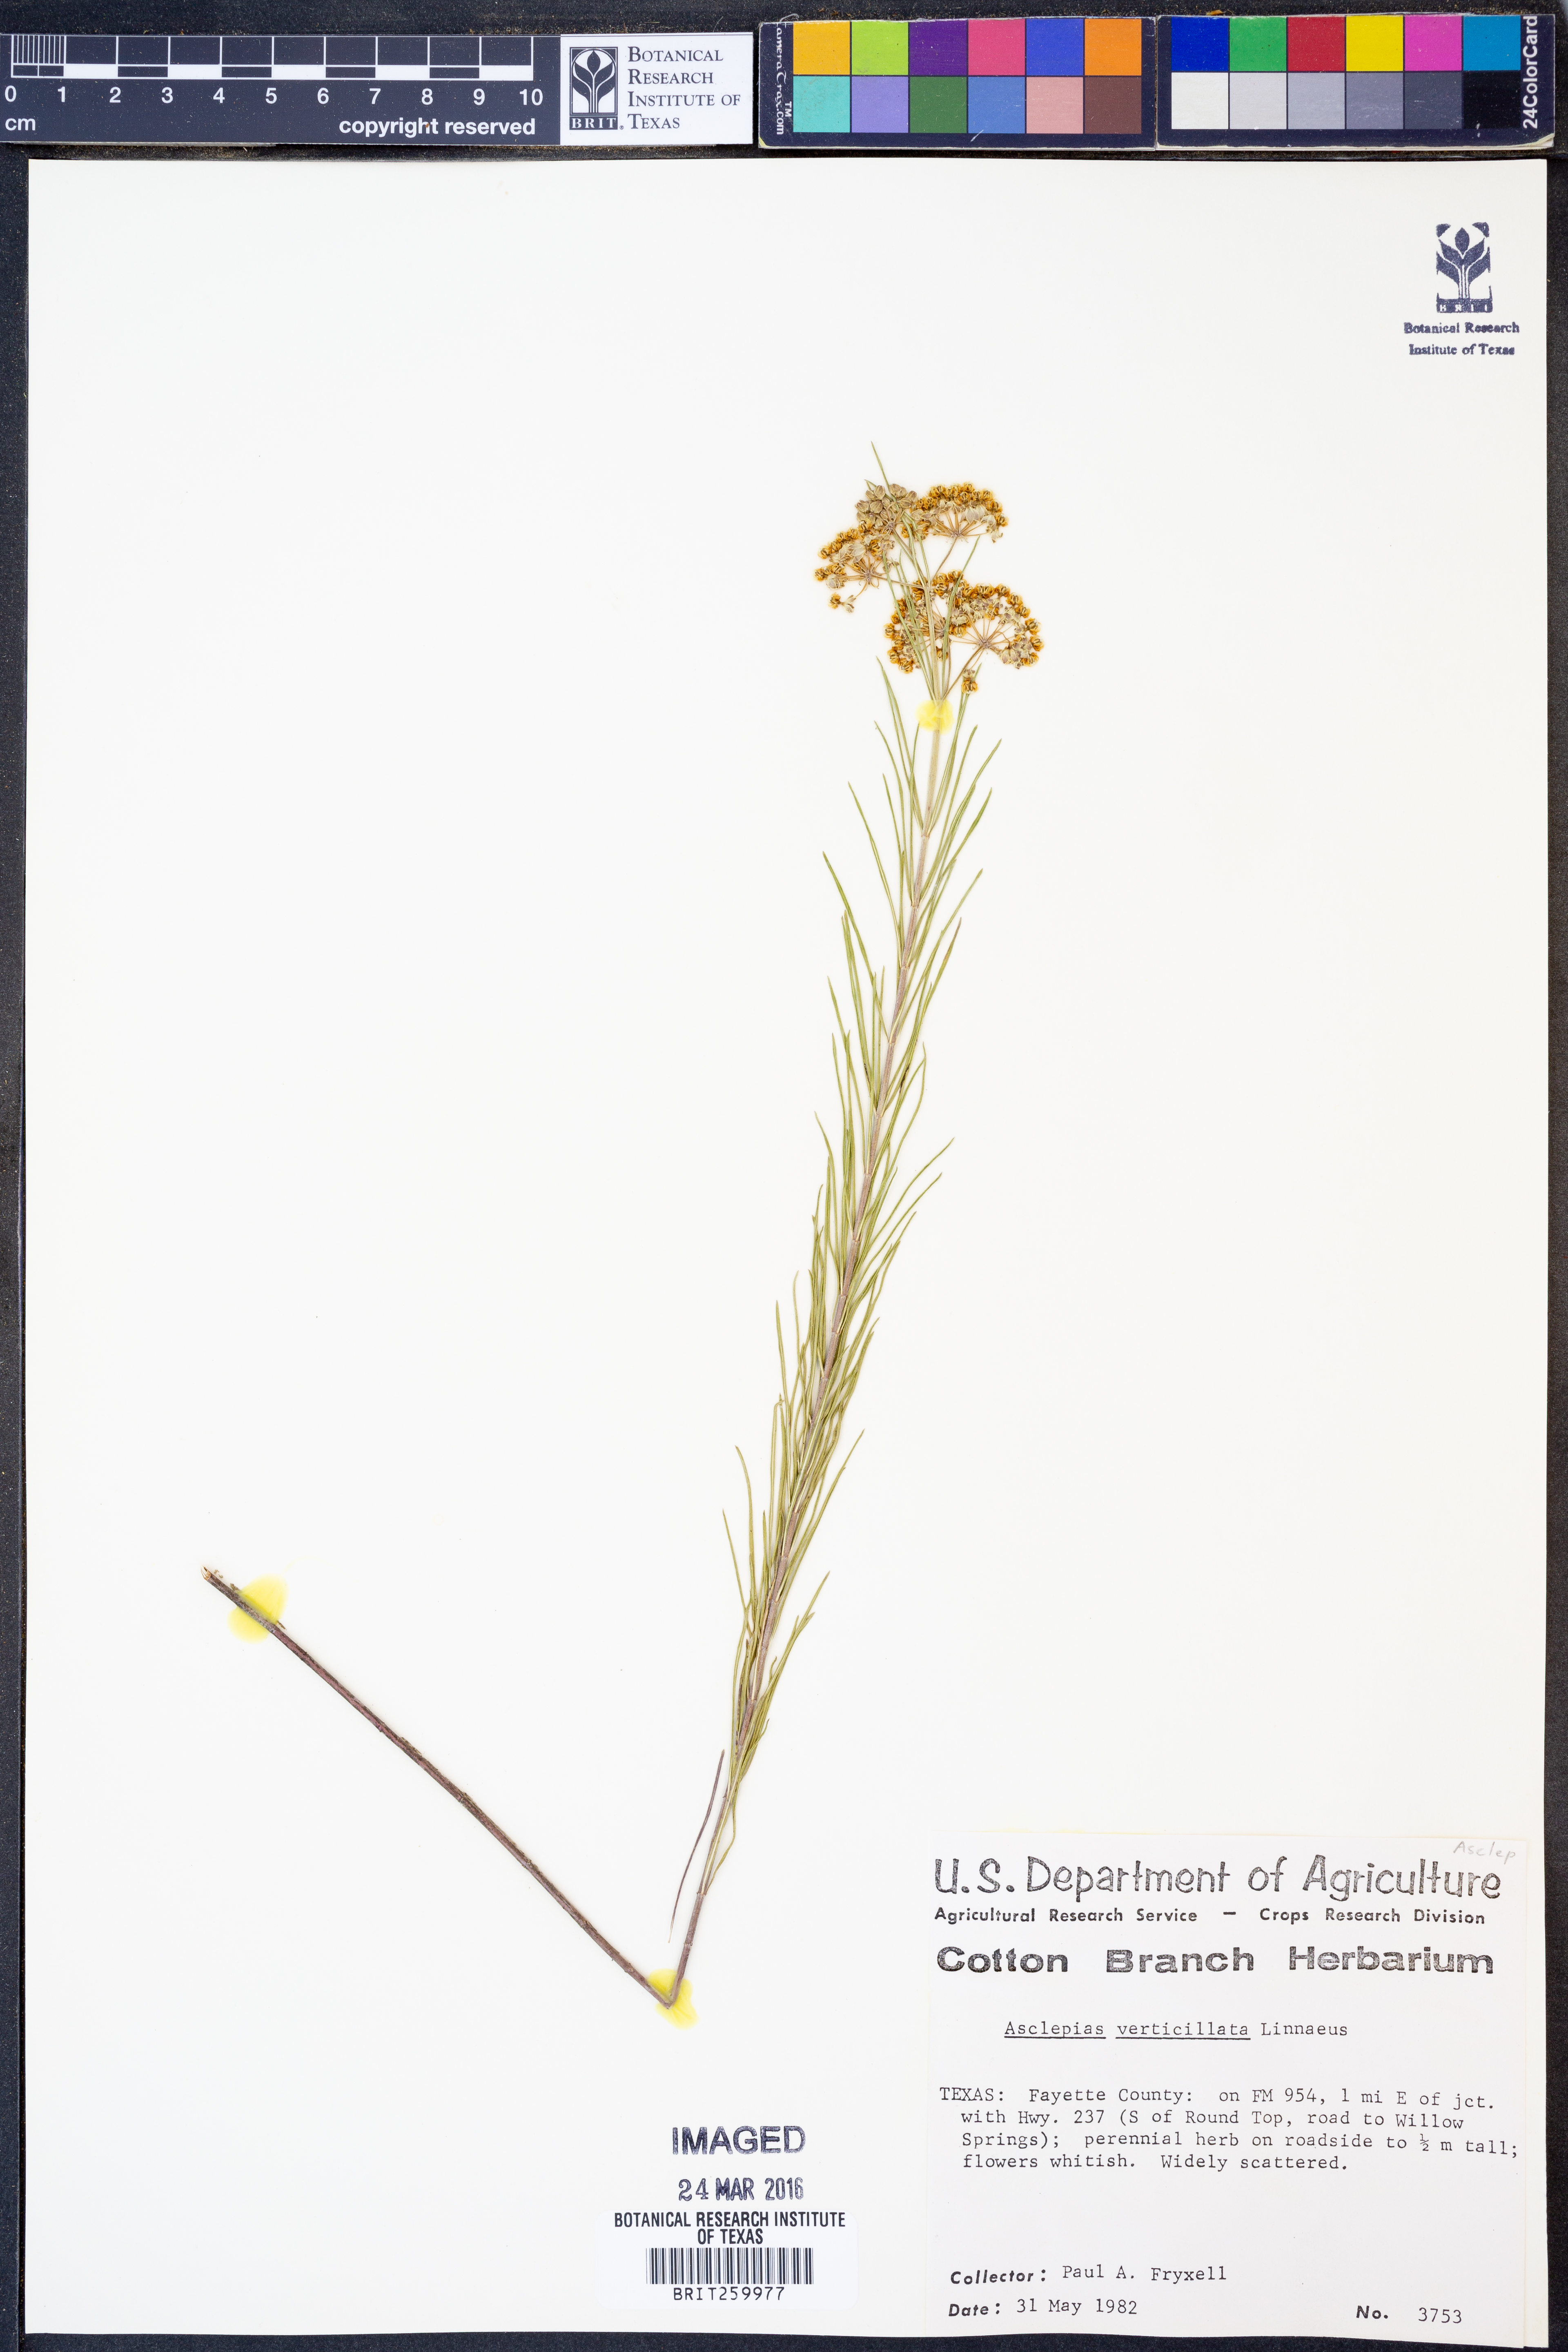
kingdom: Plantae
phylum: Tracheophyta
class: Magnoliopsida
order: Gentianales
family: Apocynaceae
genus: Asclepias
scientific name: Asclepias verticillata
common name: Eastern whorled milkweed
